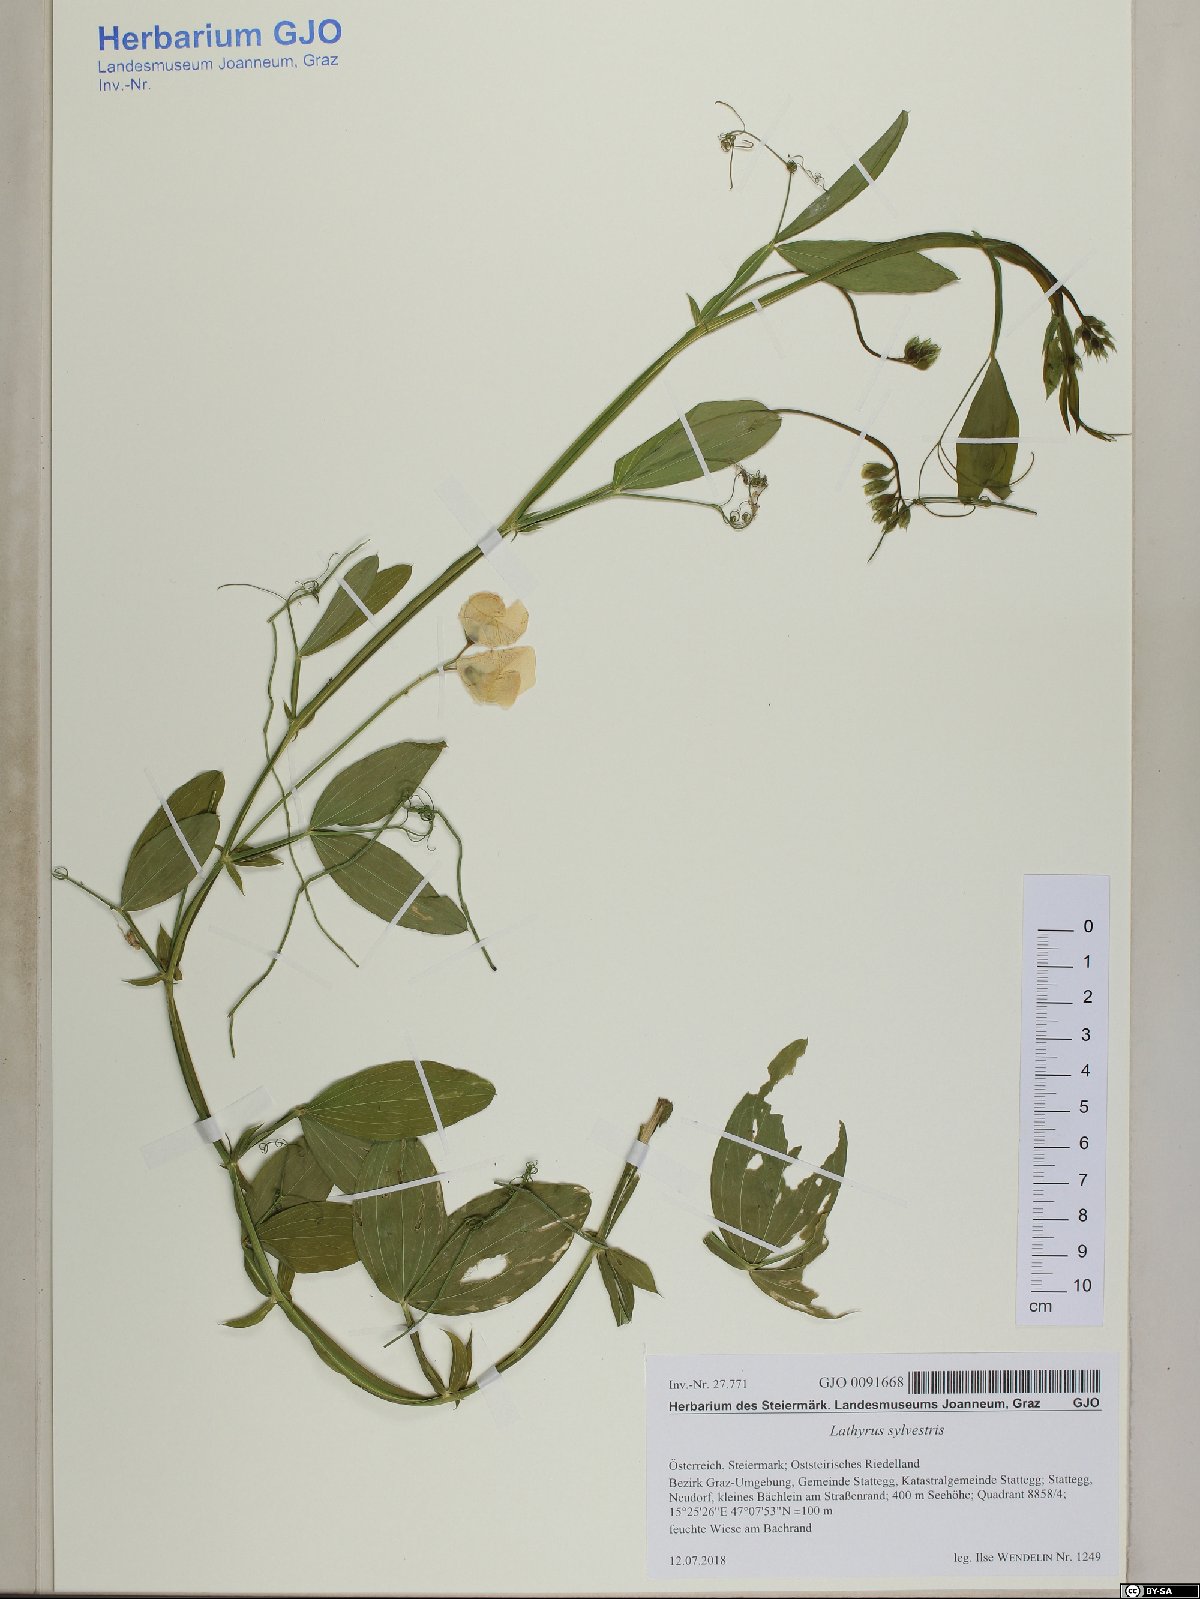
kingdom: Plantae
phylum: Tracheophyta
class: Magnoliopsida
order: Fabales
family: Fabaceae
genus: Lathyrus
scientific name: Lathyrus sylvestris
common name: Flat pea
